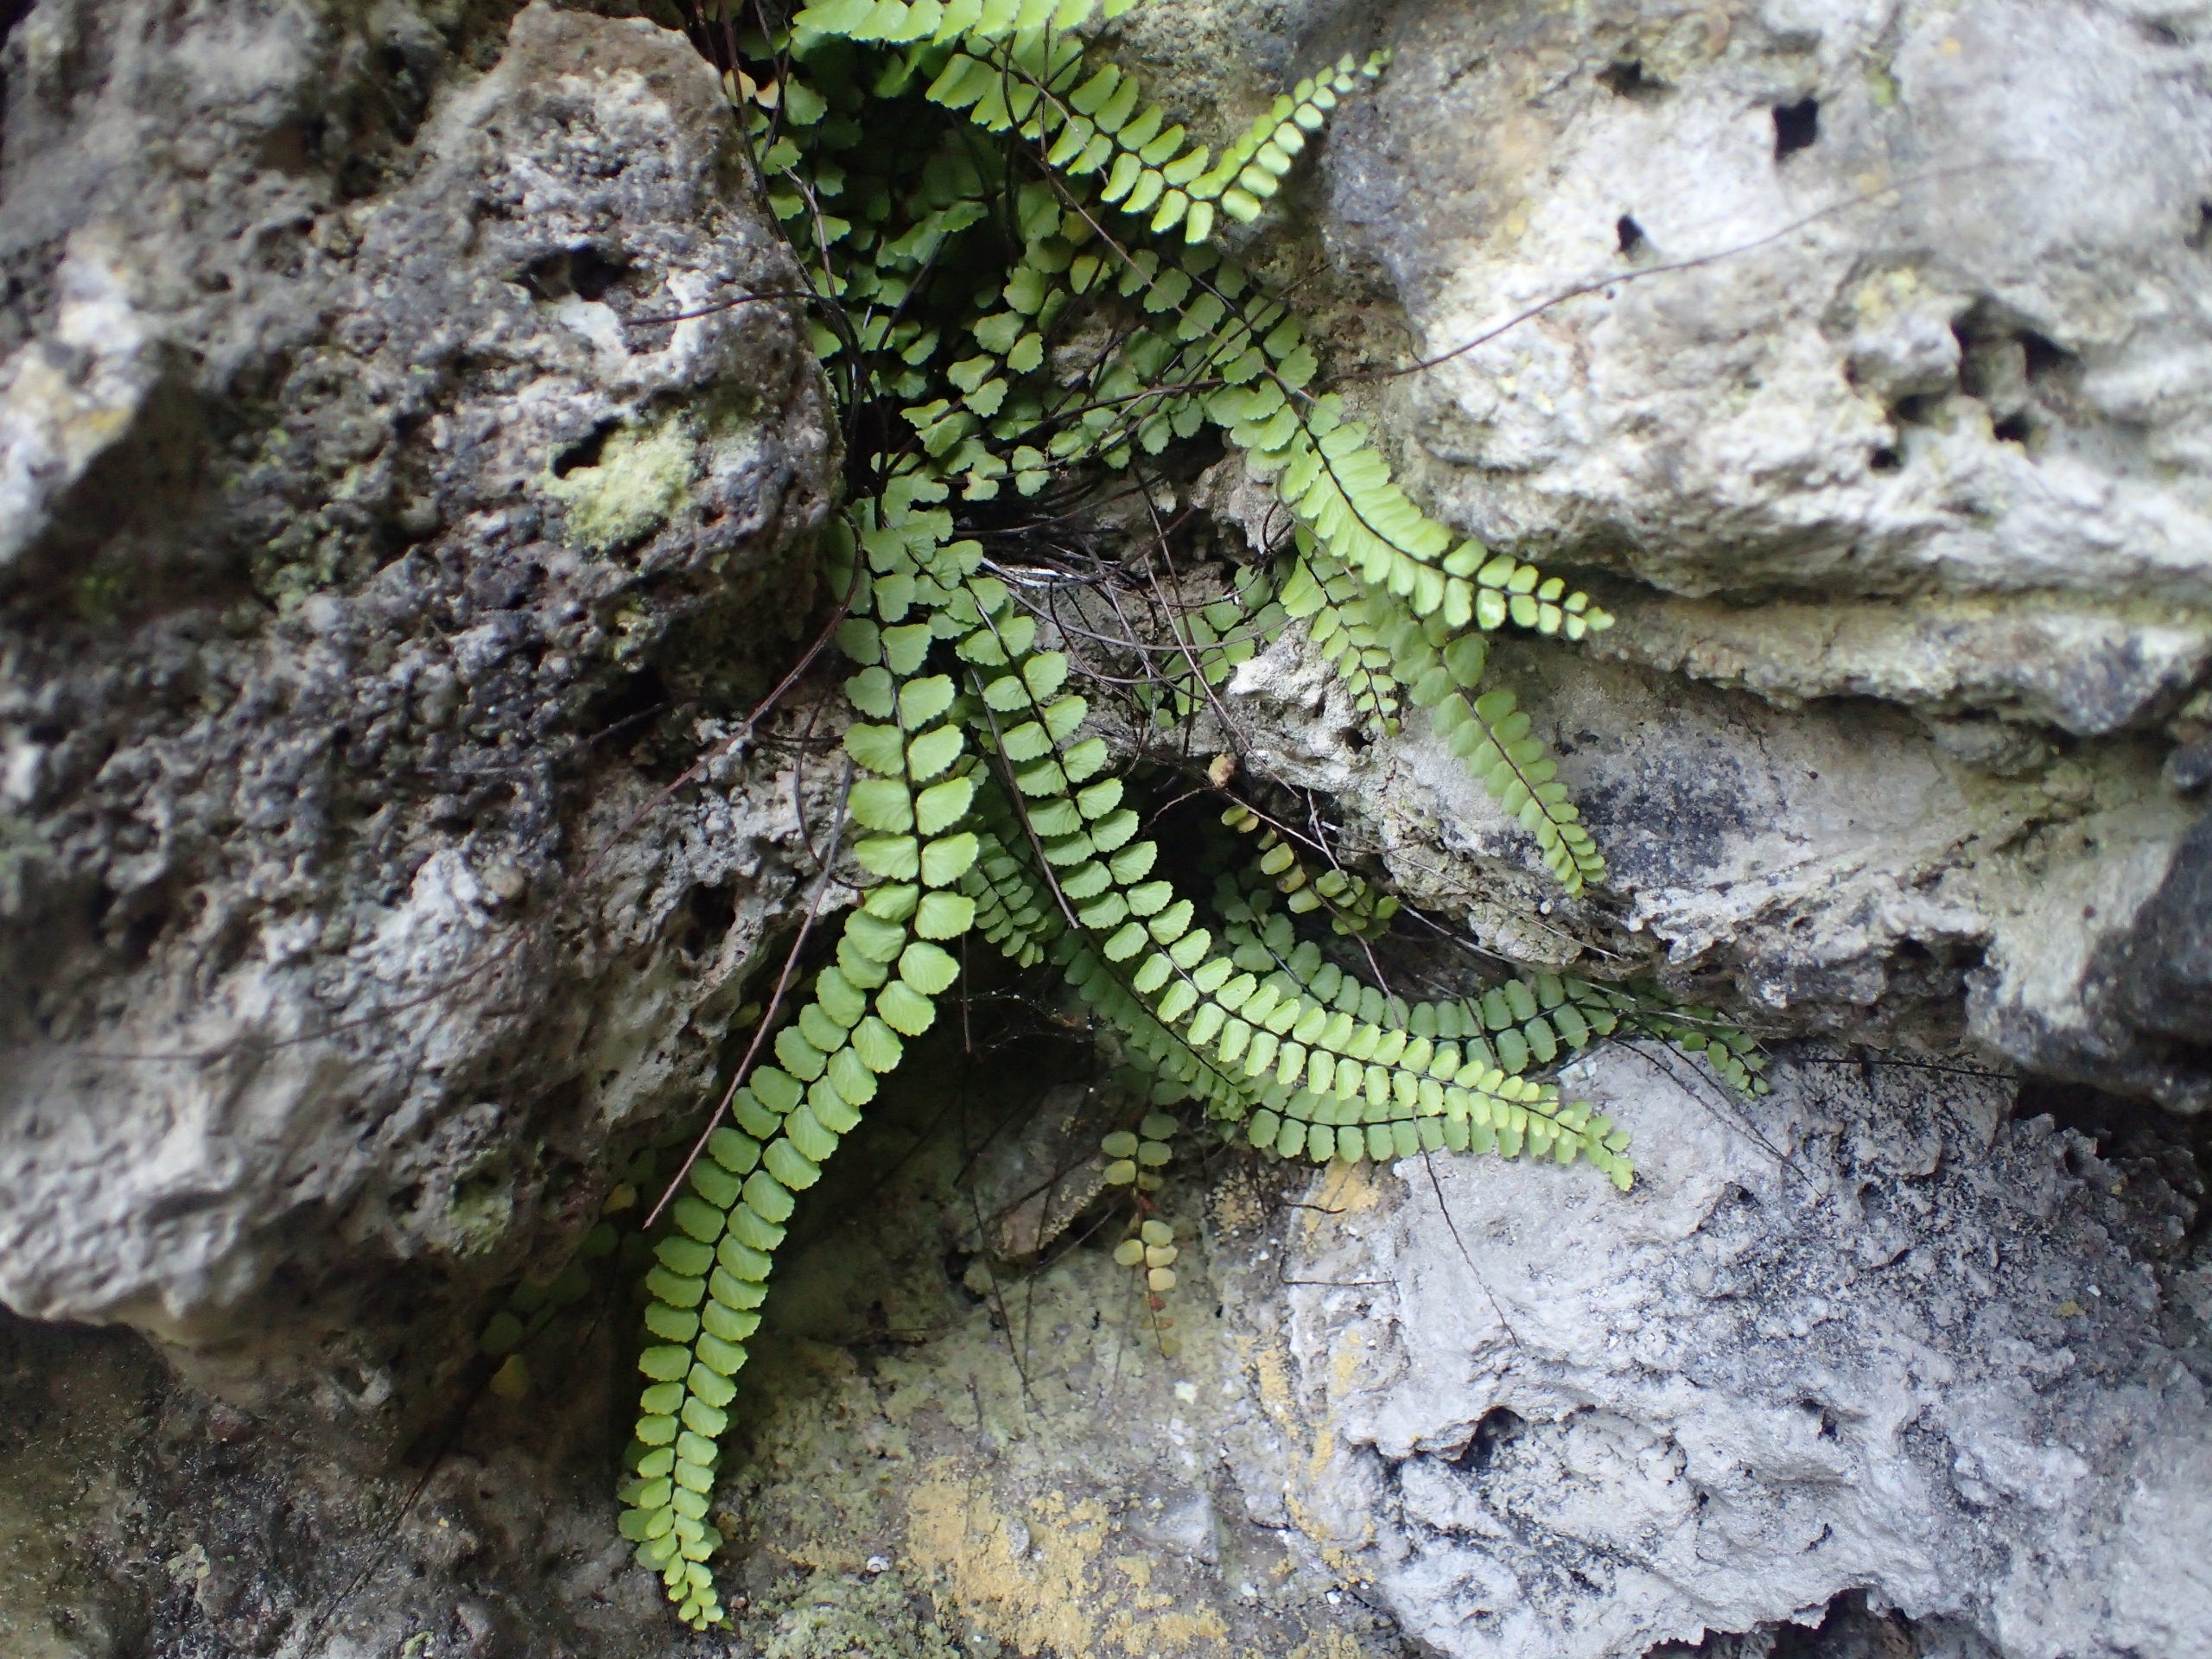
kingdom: Plantae
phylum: Tracheophyta
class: Polypodiopsida
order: Polypodiales
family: Aspleniaceae
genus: Asplenium
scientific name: Asplenium quadrivalens
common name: Kalk-radeløv
